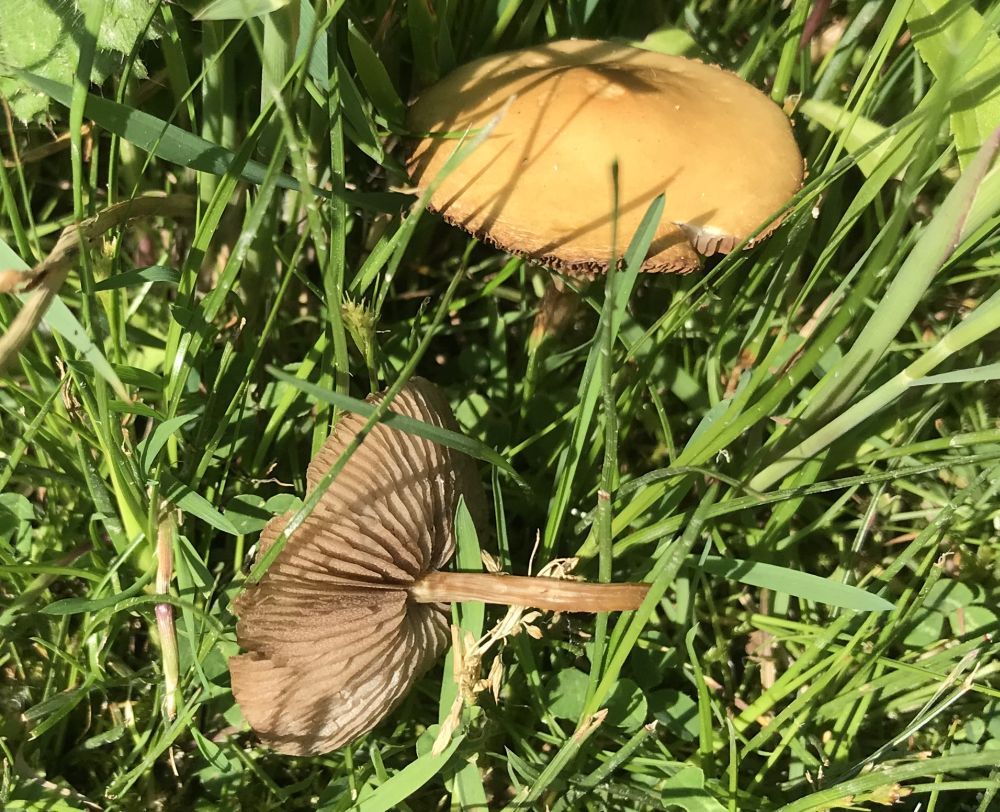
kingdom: Fungi
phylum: Basidiomycota
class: Agaricomycetes
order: Agaricales
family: Strophariaceae
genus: Agrocybe
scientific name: Agrocybe elatella
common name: mose-agerhat
